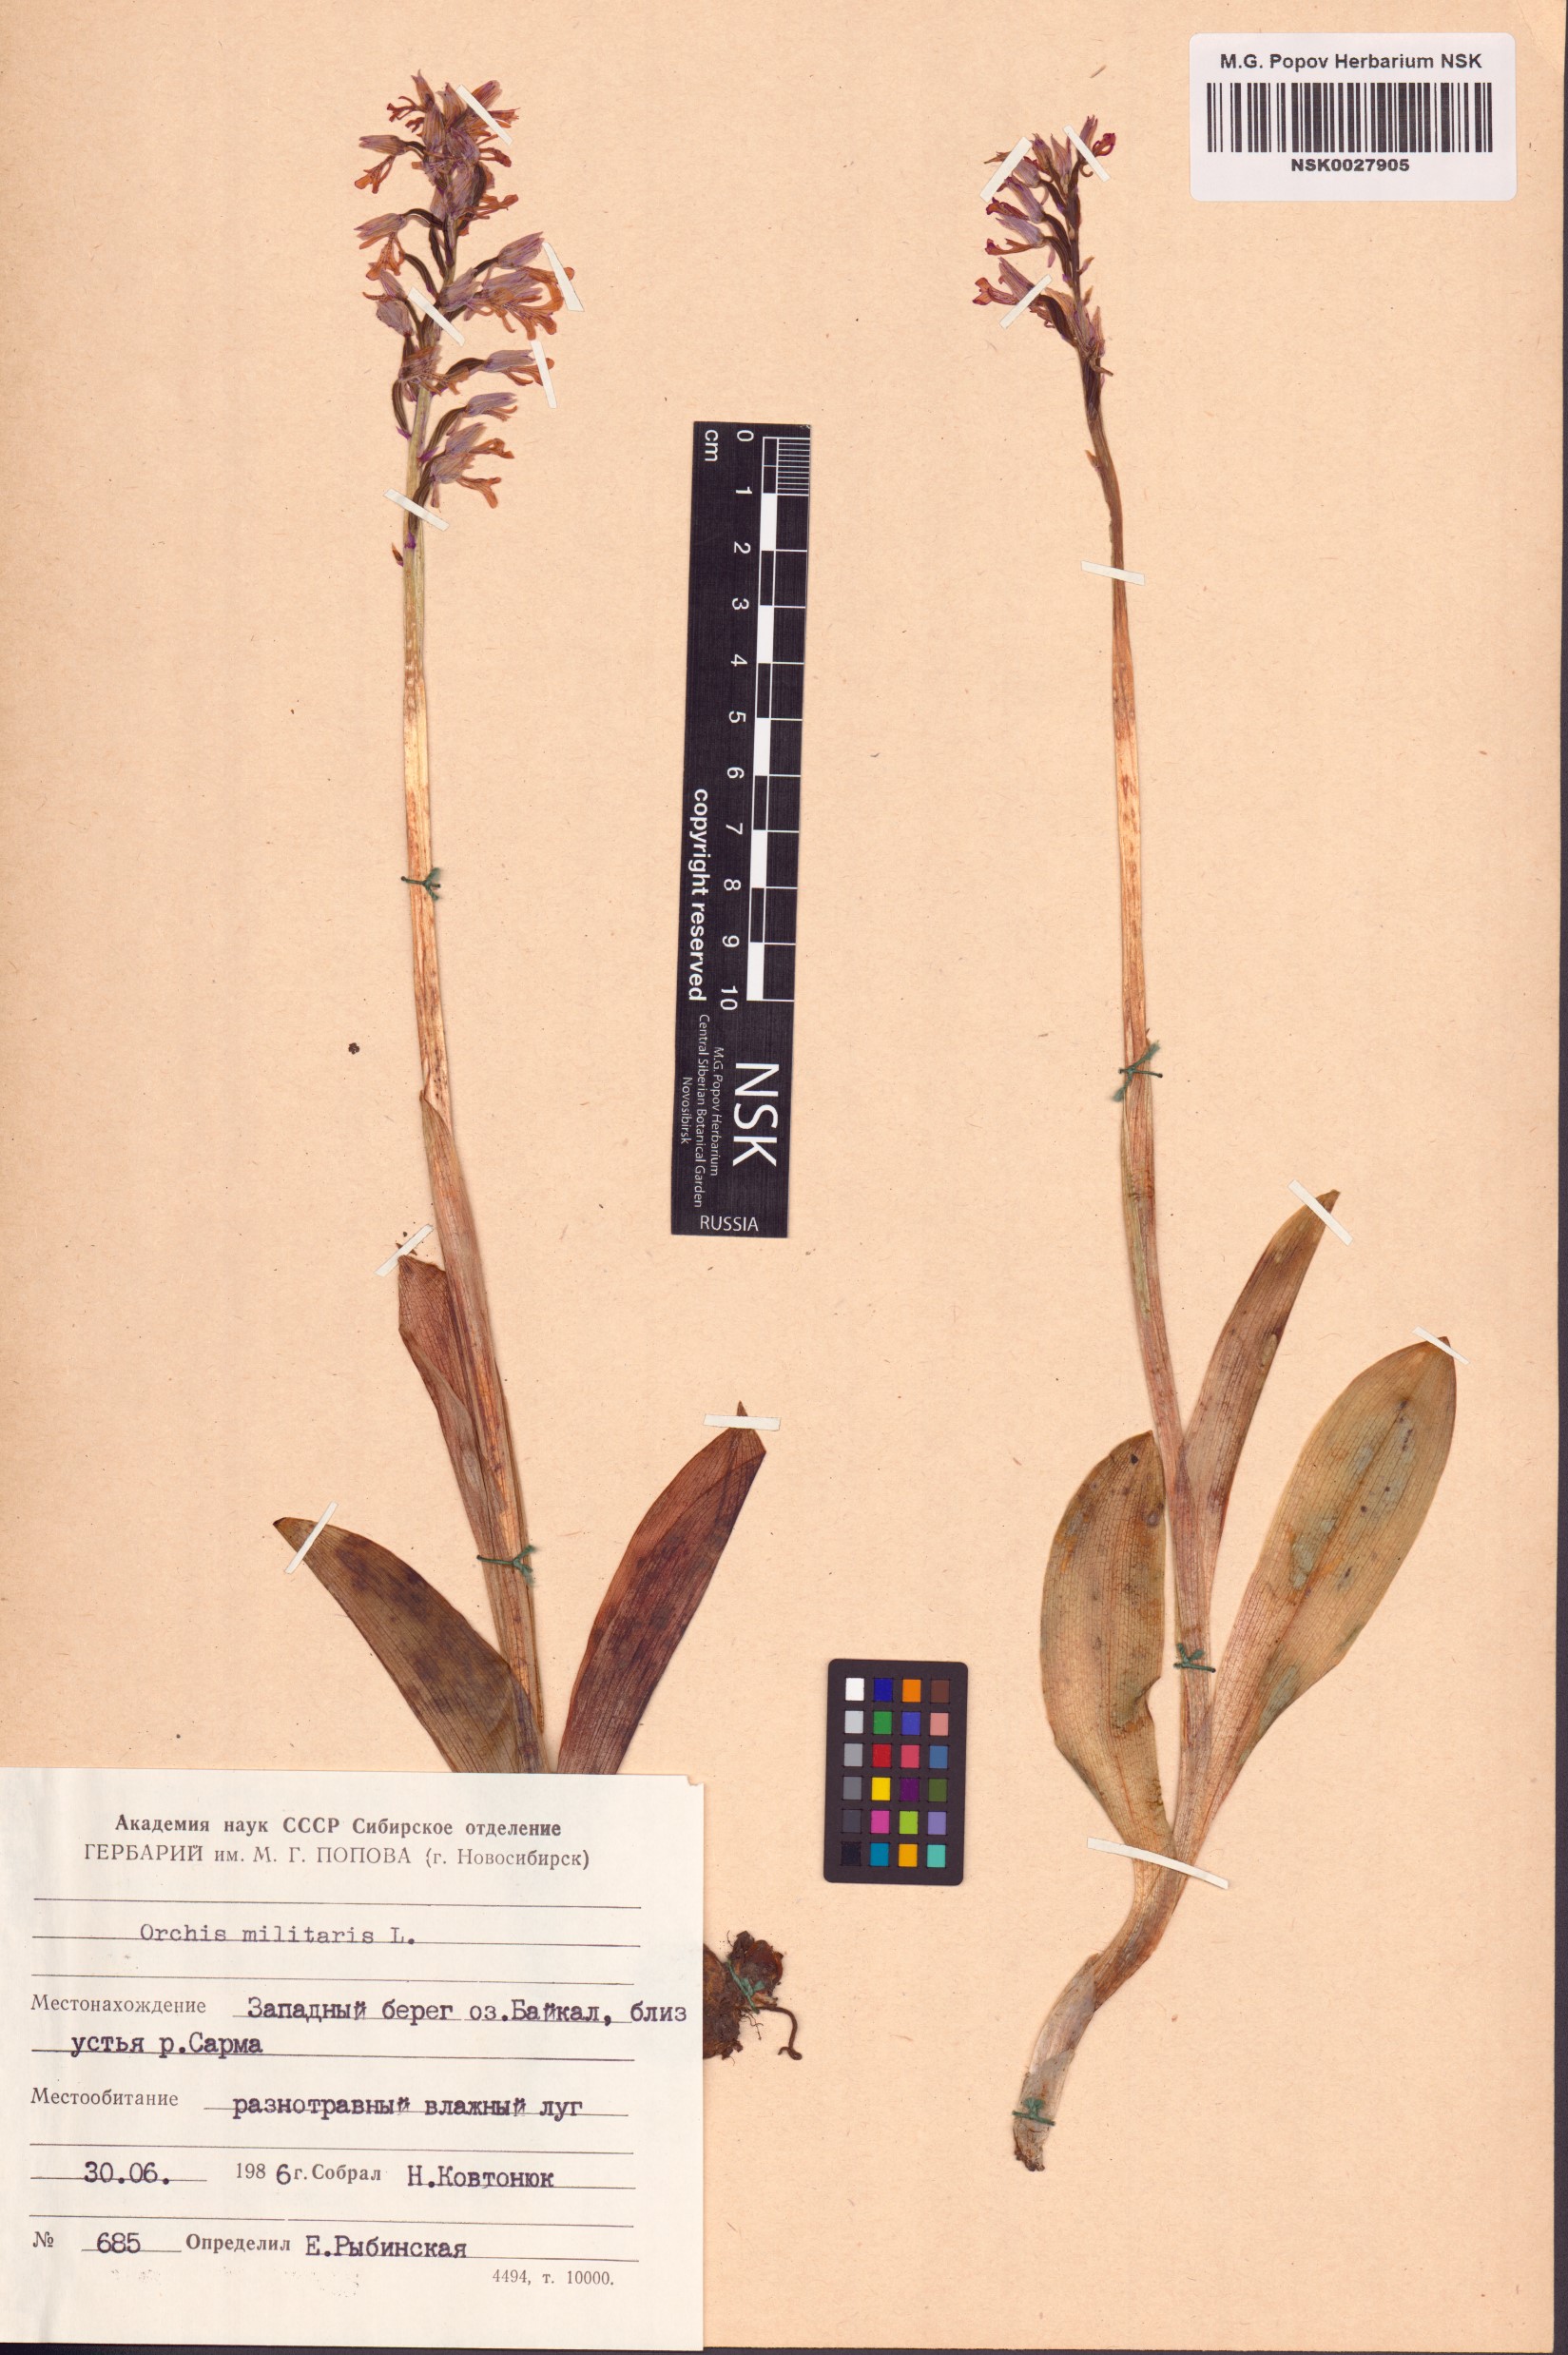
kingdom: Plantae
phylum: Tracheophyta
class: Liliopsida
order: Asparagales
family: Orchidaceae
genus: Orchis
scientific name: Orchis militaris
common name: Military orchid
